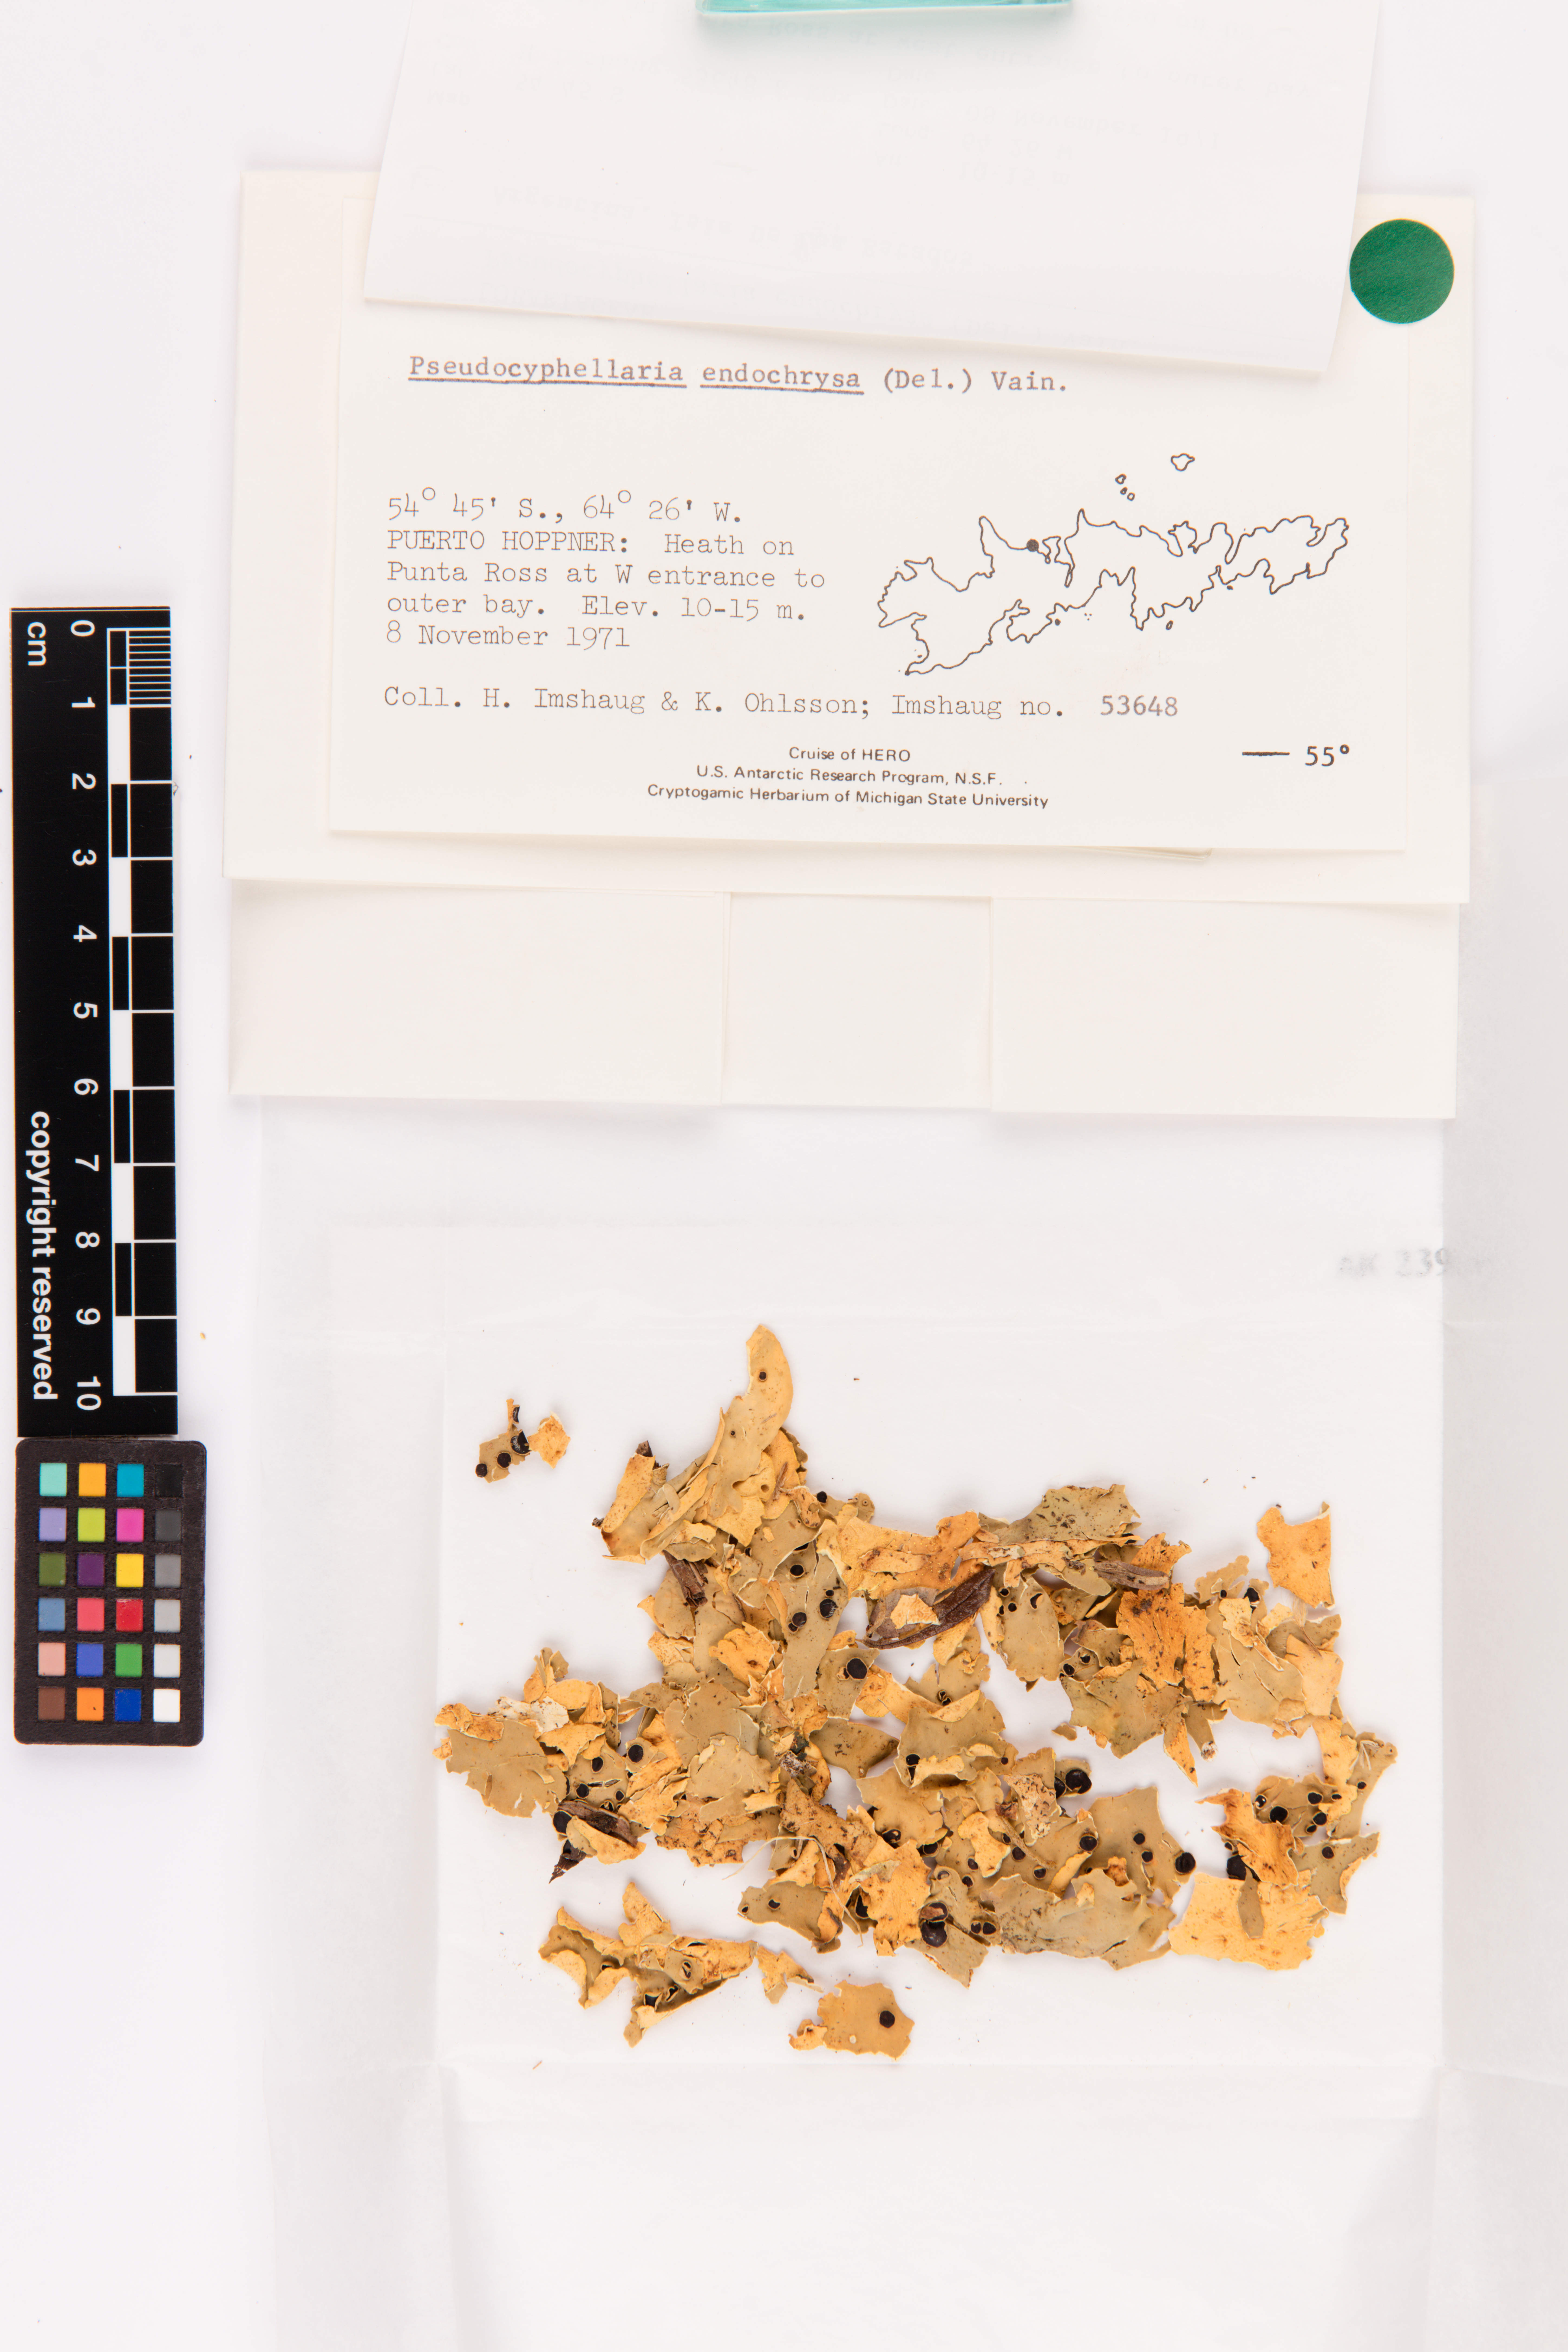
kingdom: Fungi
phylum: Ascomycota
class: Lecanoromycetes
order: Peltigerales
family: Lobariaceae
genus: Podostictina
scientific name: Podostictina endochrysa
